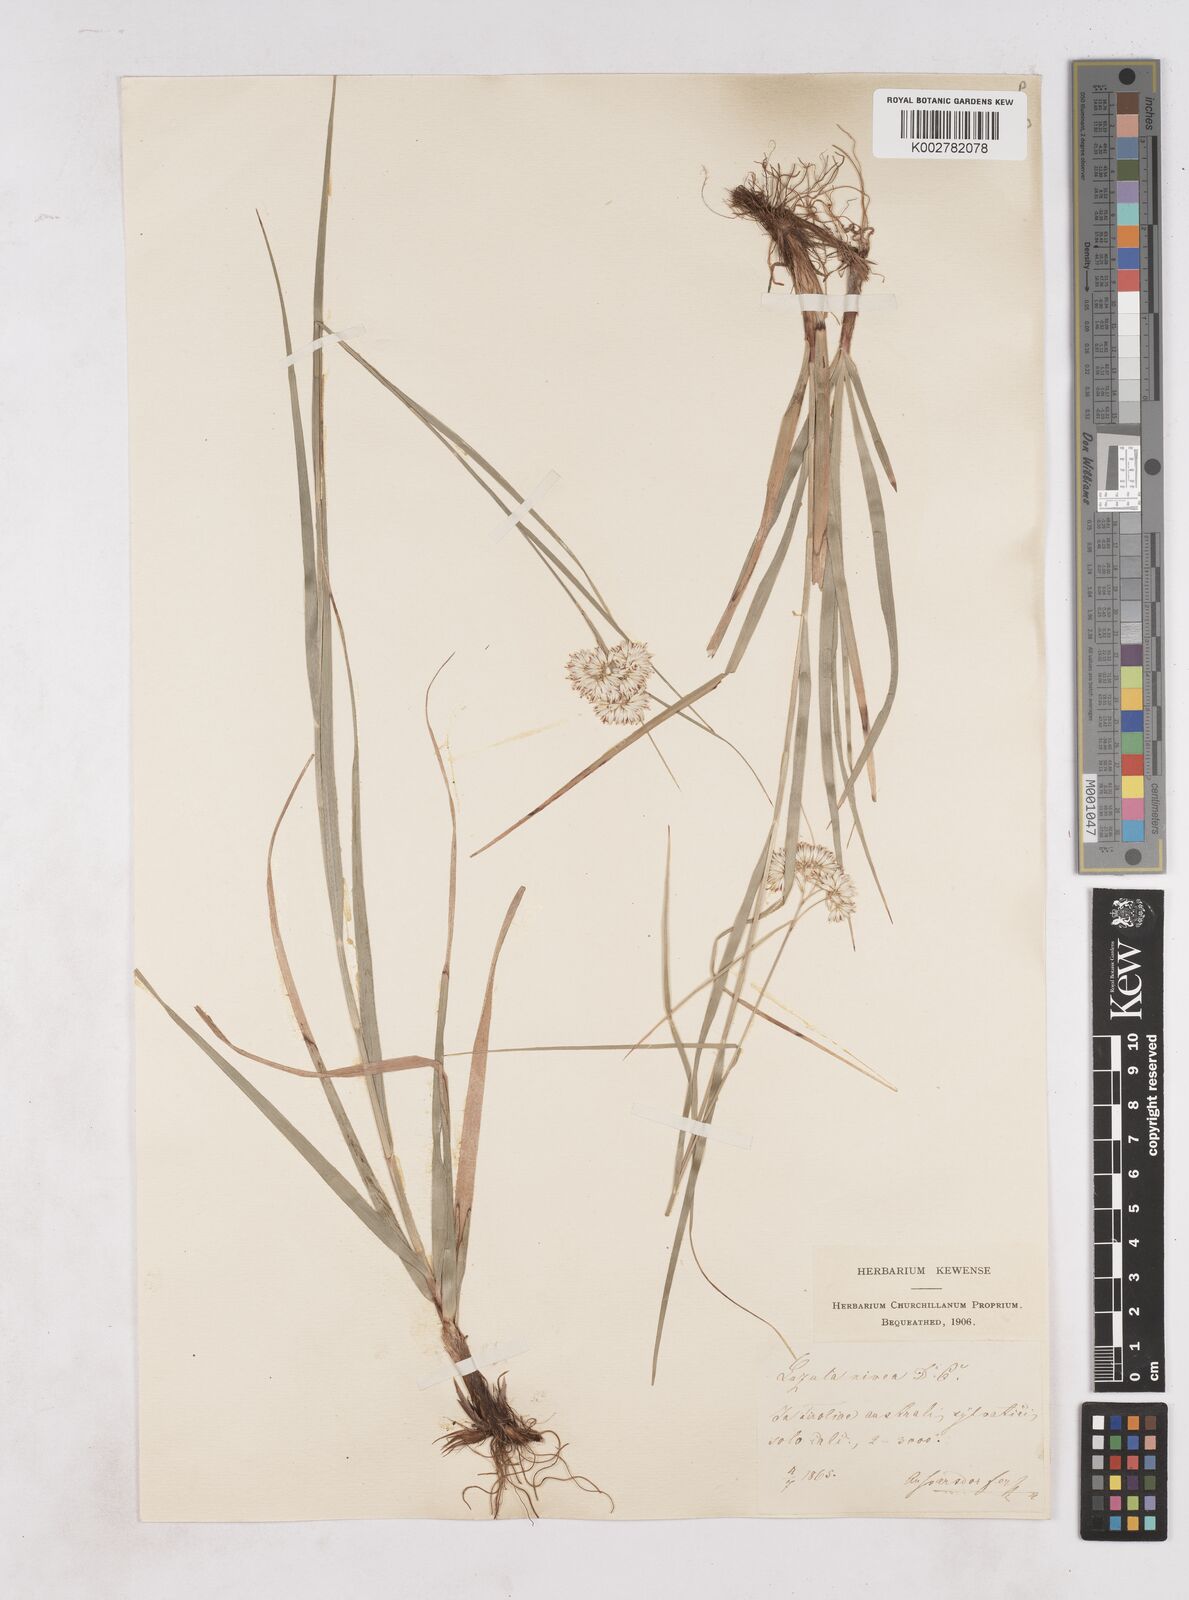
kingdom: Plantae
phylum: Tracheophyta
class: Liliopsida
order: Poales
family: Juncaceae
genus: Luzula
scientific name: Luzula nivea
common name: Snow-white wood-rush
